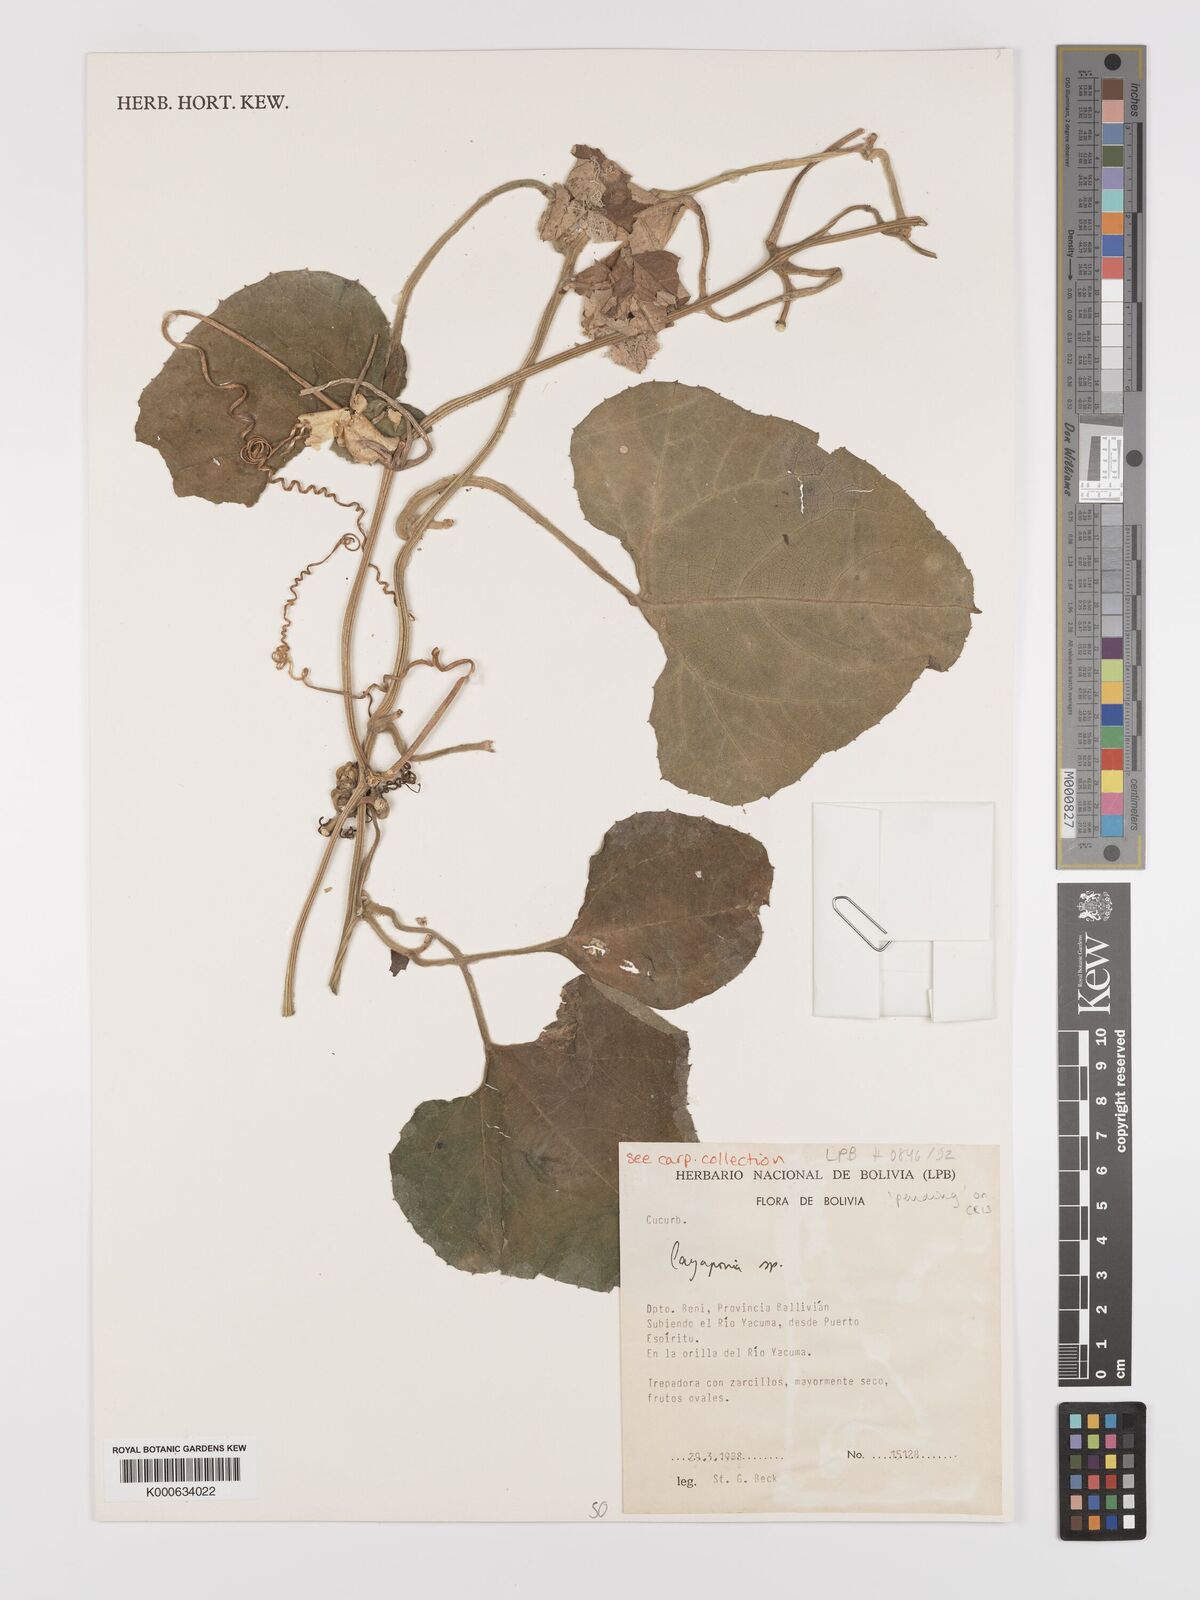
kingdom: Plantae
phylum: Tracheophyta
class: Magnoliopsida
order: Cucurbitales
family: Cucurbitaceae
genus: Cayaponia
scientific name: Cayaponia
